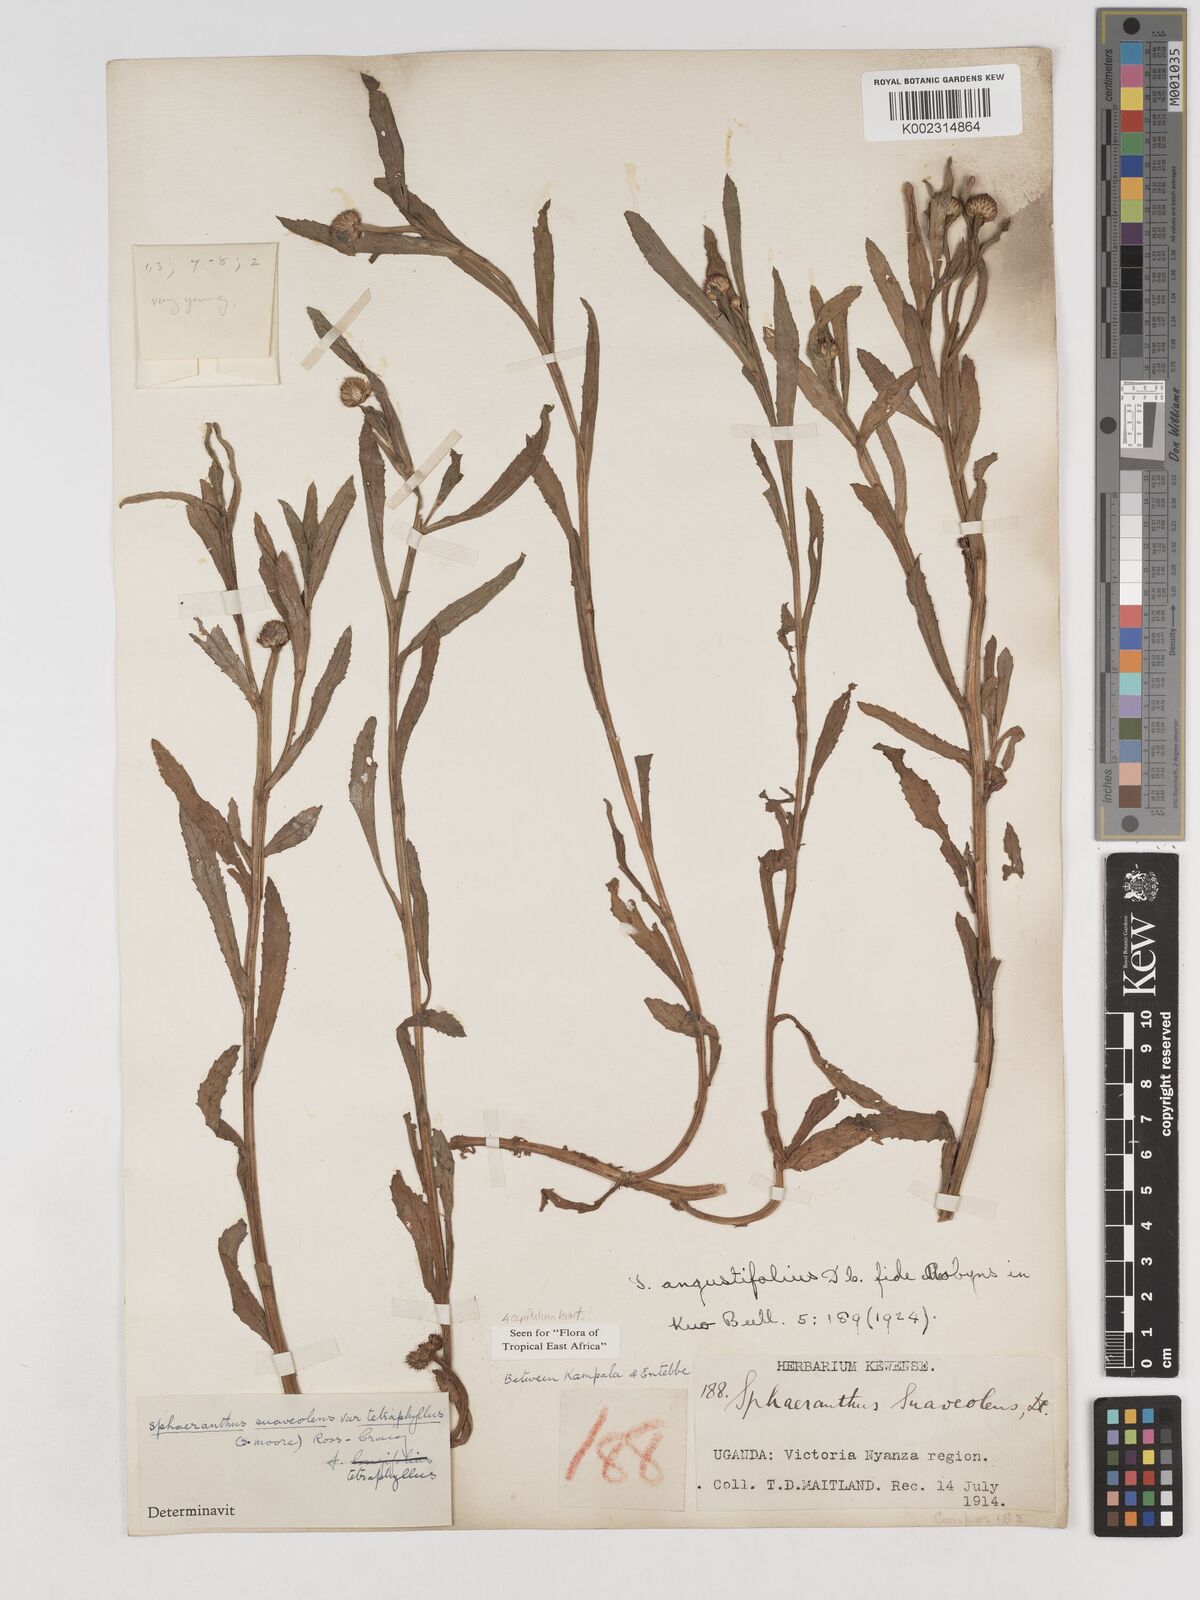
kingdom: Plantae
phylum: Tracheophyta
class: Magnoliopsida
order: Asterales
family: Asteraceae
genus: Sphaeranthus
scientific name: Sphaeranthus suaveolens
